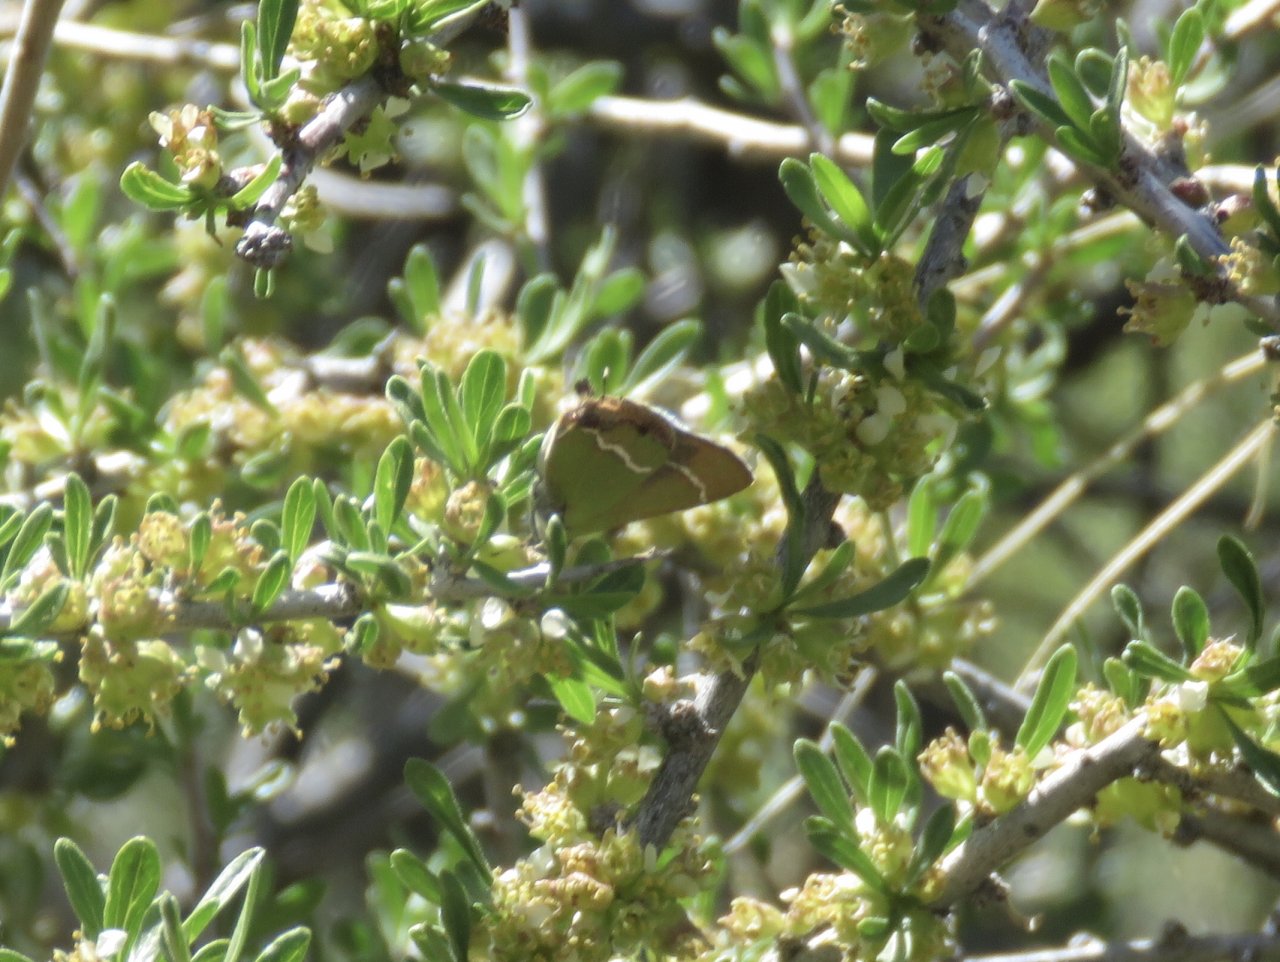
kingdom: Animalia
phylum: Arthropoda
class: Insecta
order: Lepidoptera
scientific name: Lepidoptera
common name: Butterflies
